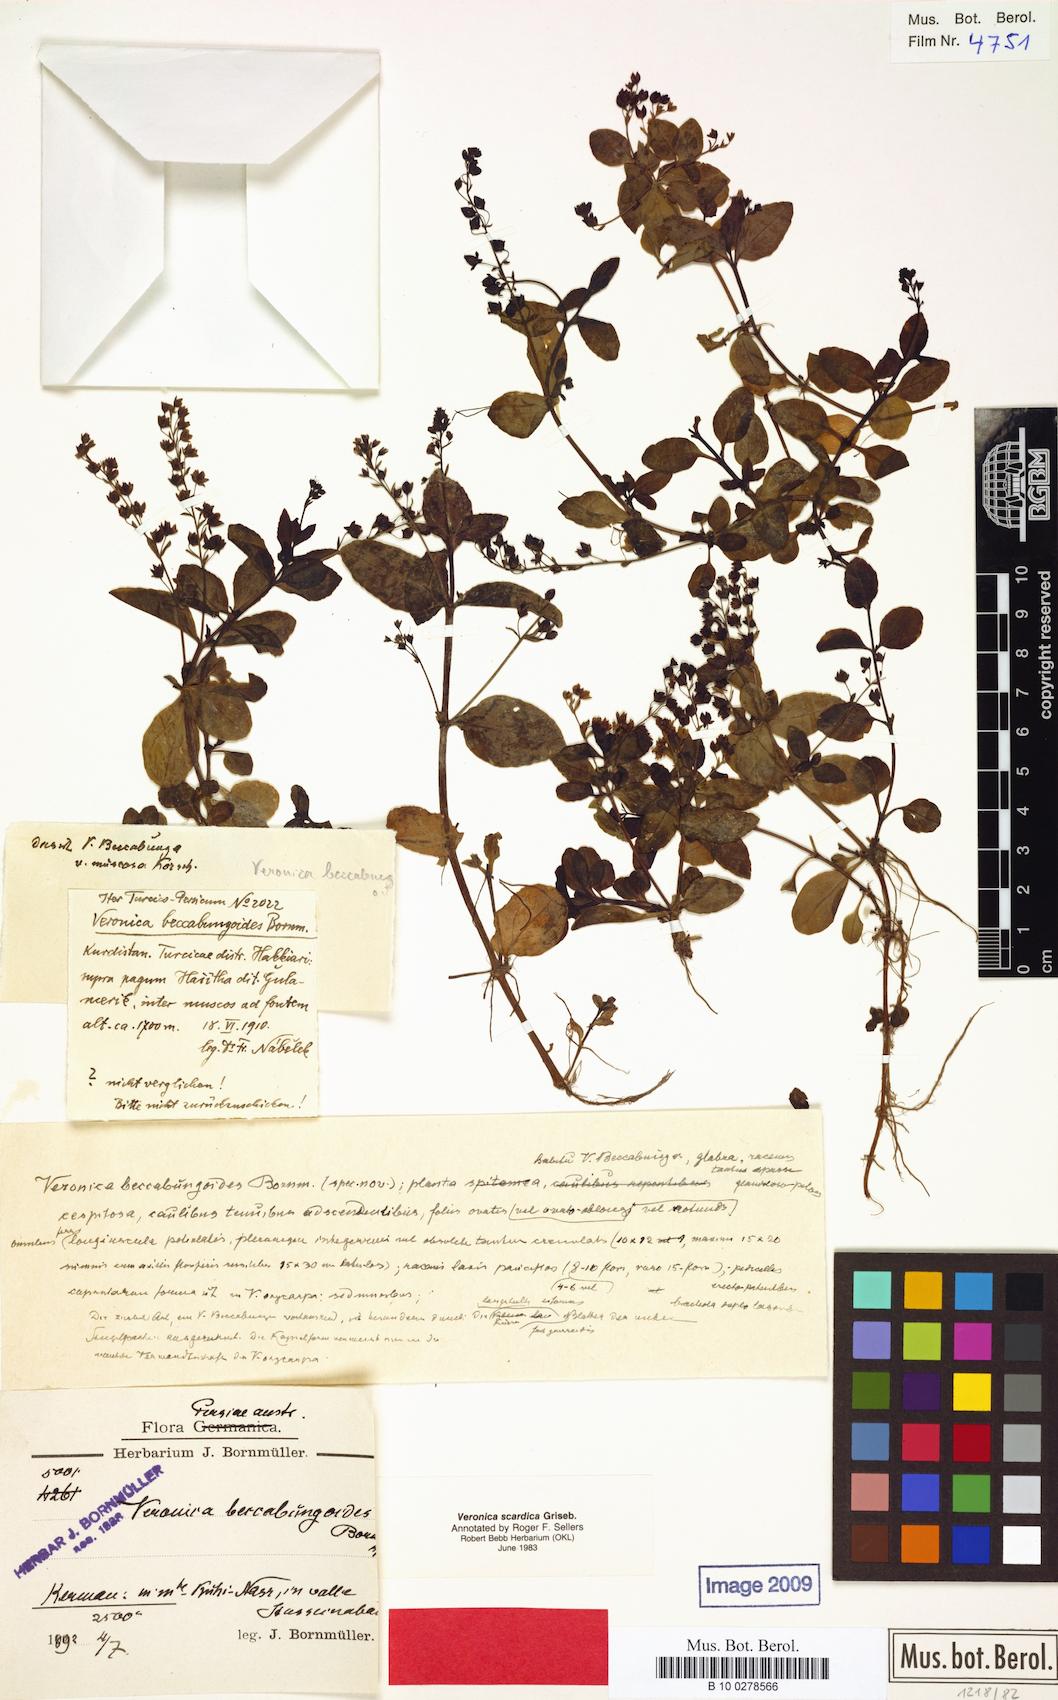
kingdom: Plantae
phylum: Tracheophyta
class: Magnoliopsida
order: Lamiales
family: Plantaginaceae
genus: Veronica
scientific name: Veronica beccabunga
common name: Brooklime
